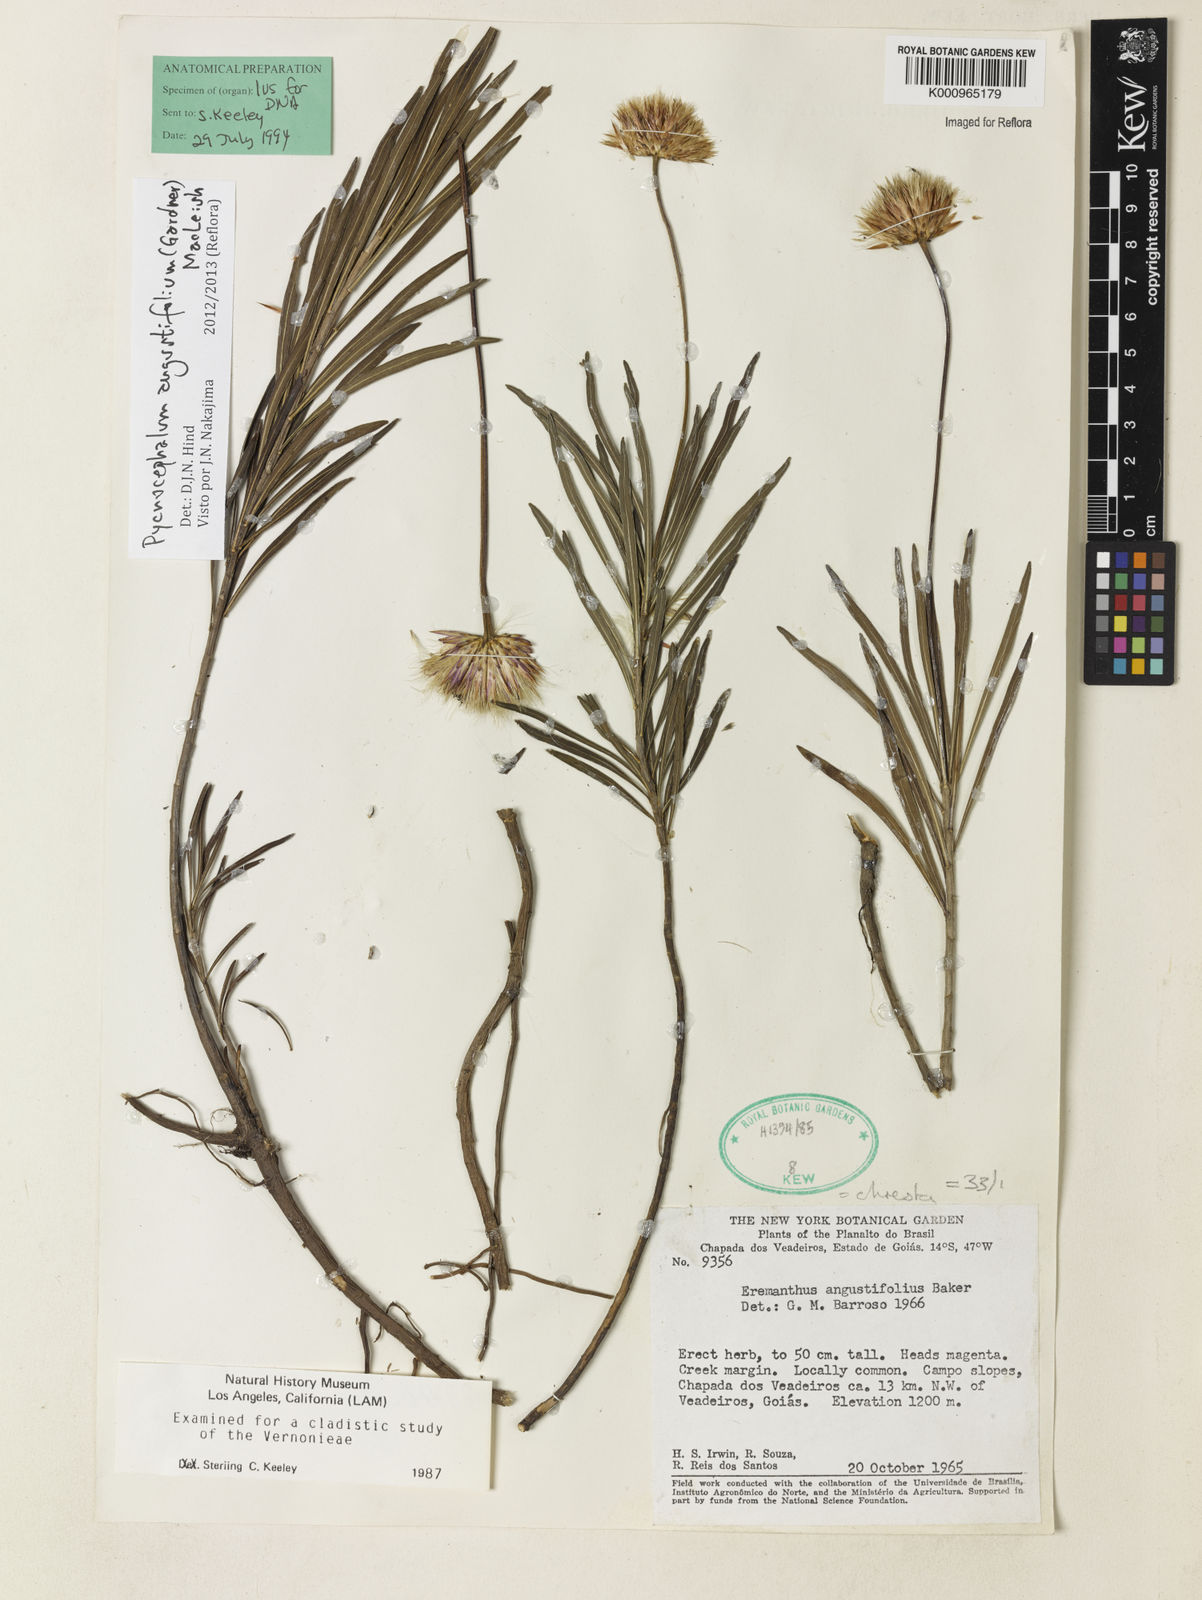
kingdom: Plantae
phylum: Tracheophyta
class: Magnoliopsida
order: Asterales
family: Asteraceae
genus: Chresta
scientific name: Chresta angustifolia
